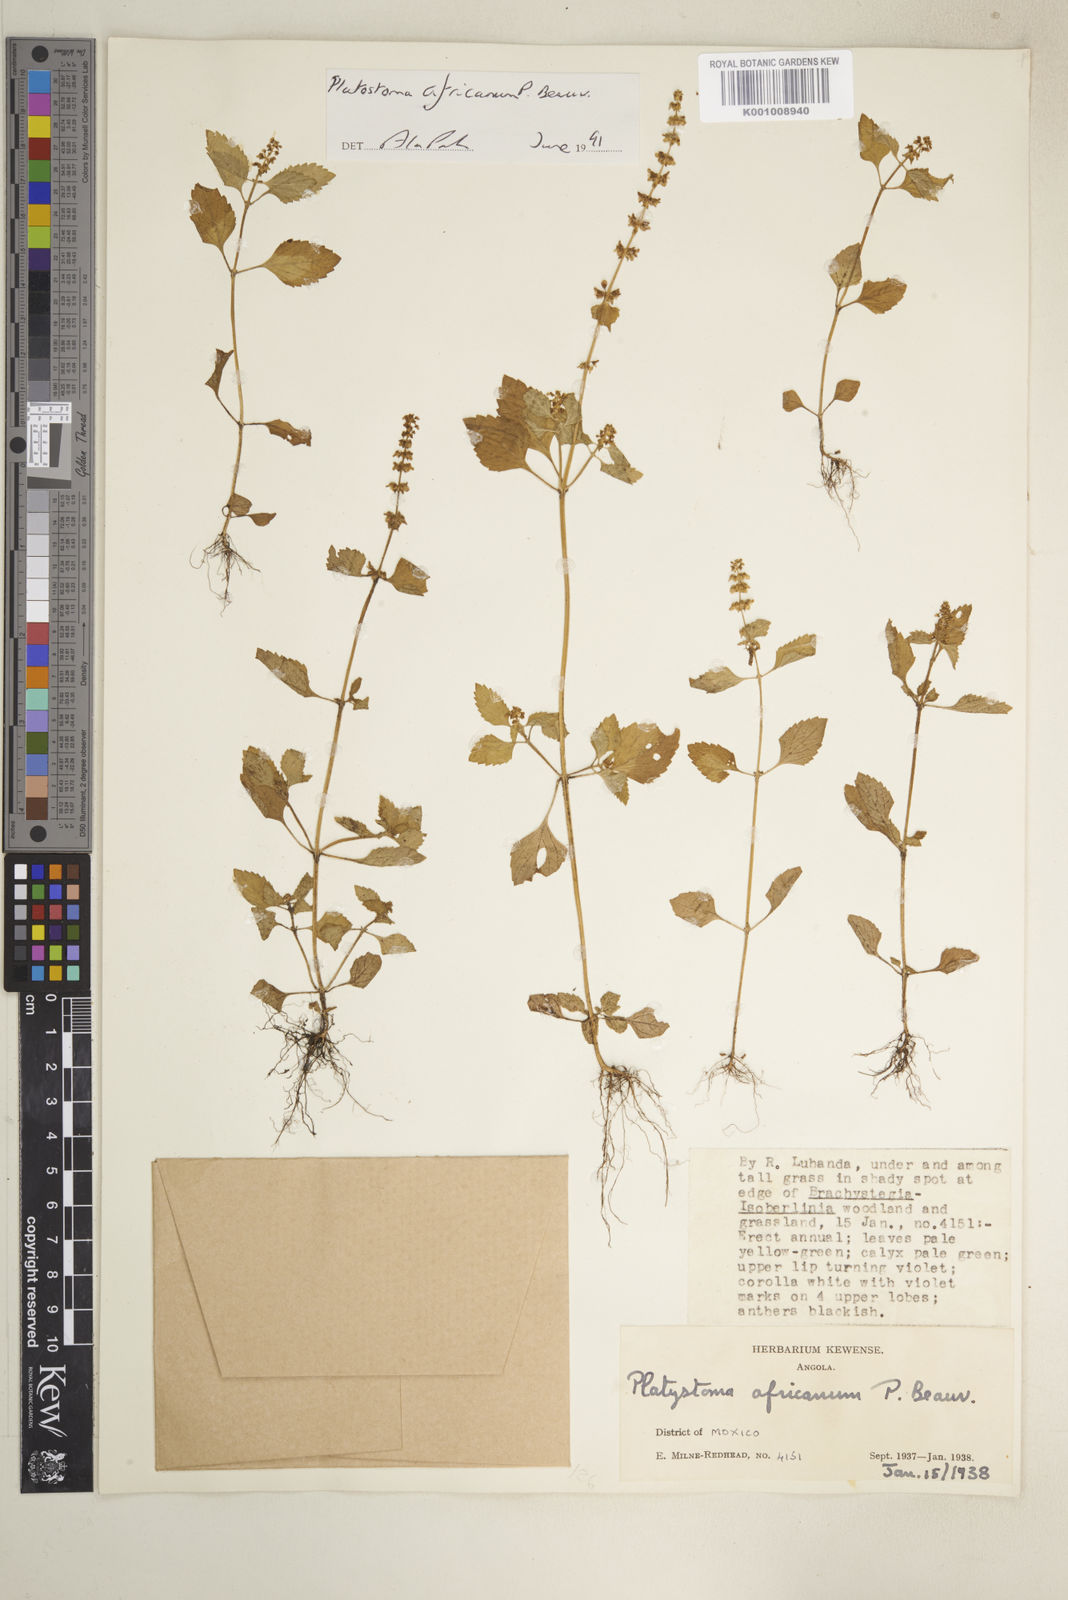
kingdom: Plantae
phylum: Tracheophyta
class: Magnoliopsida
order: Lamiales
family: Lamiaceae
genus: Platostoma
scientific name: Platostoma africanum
